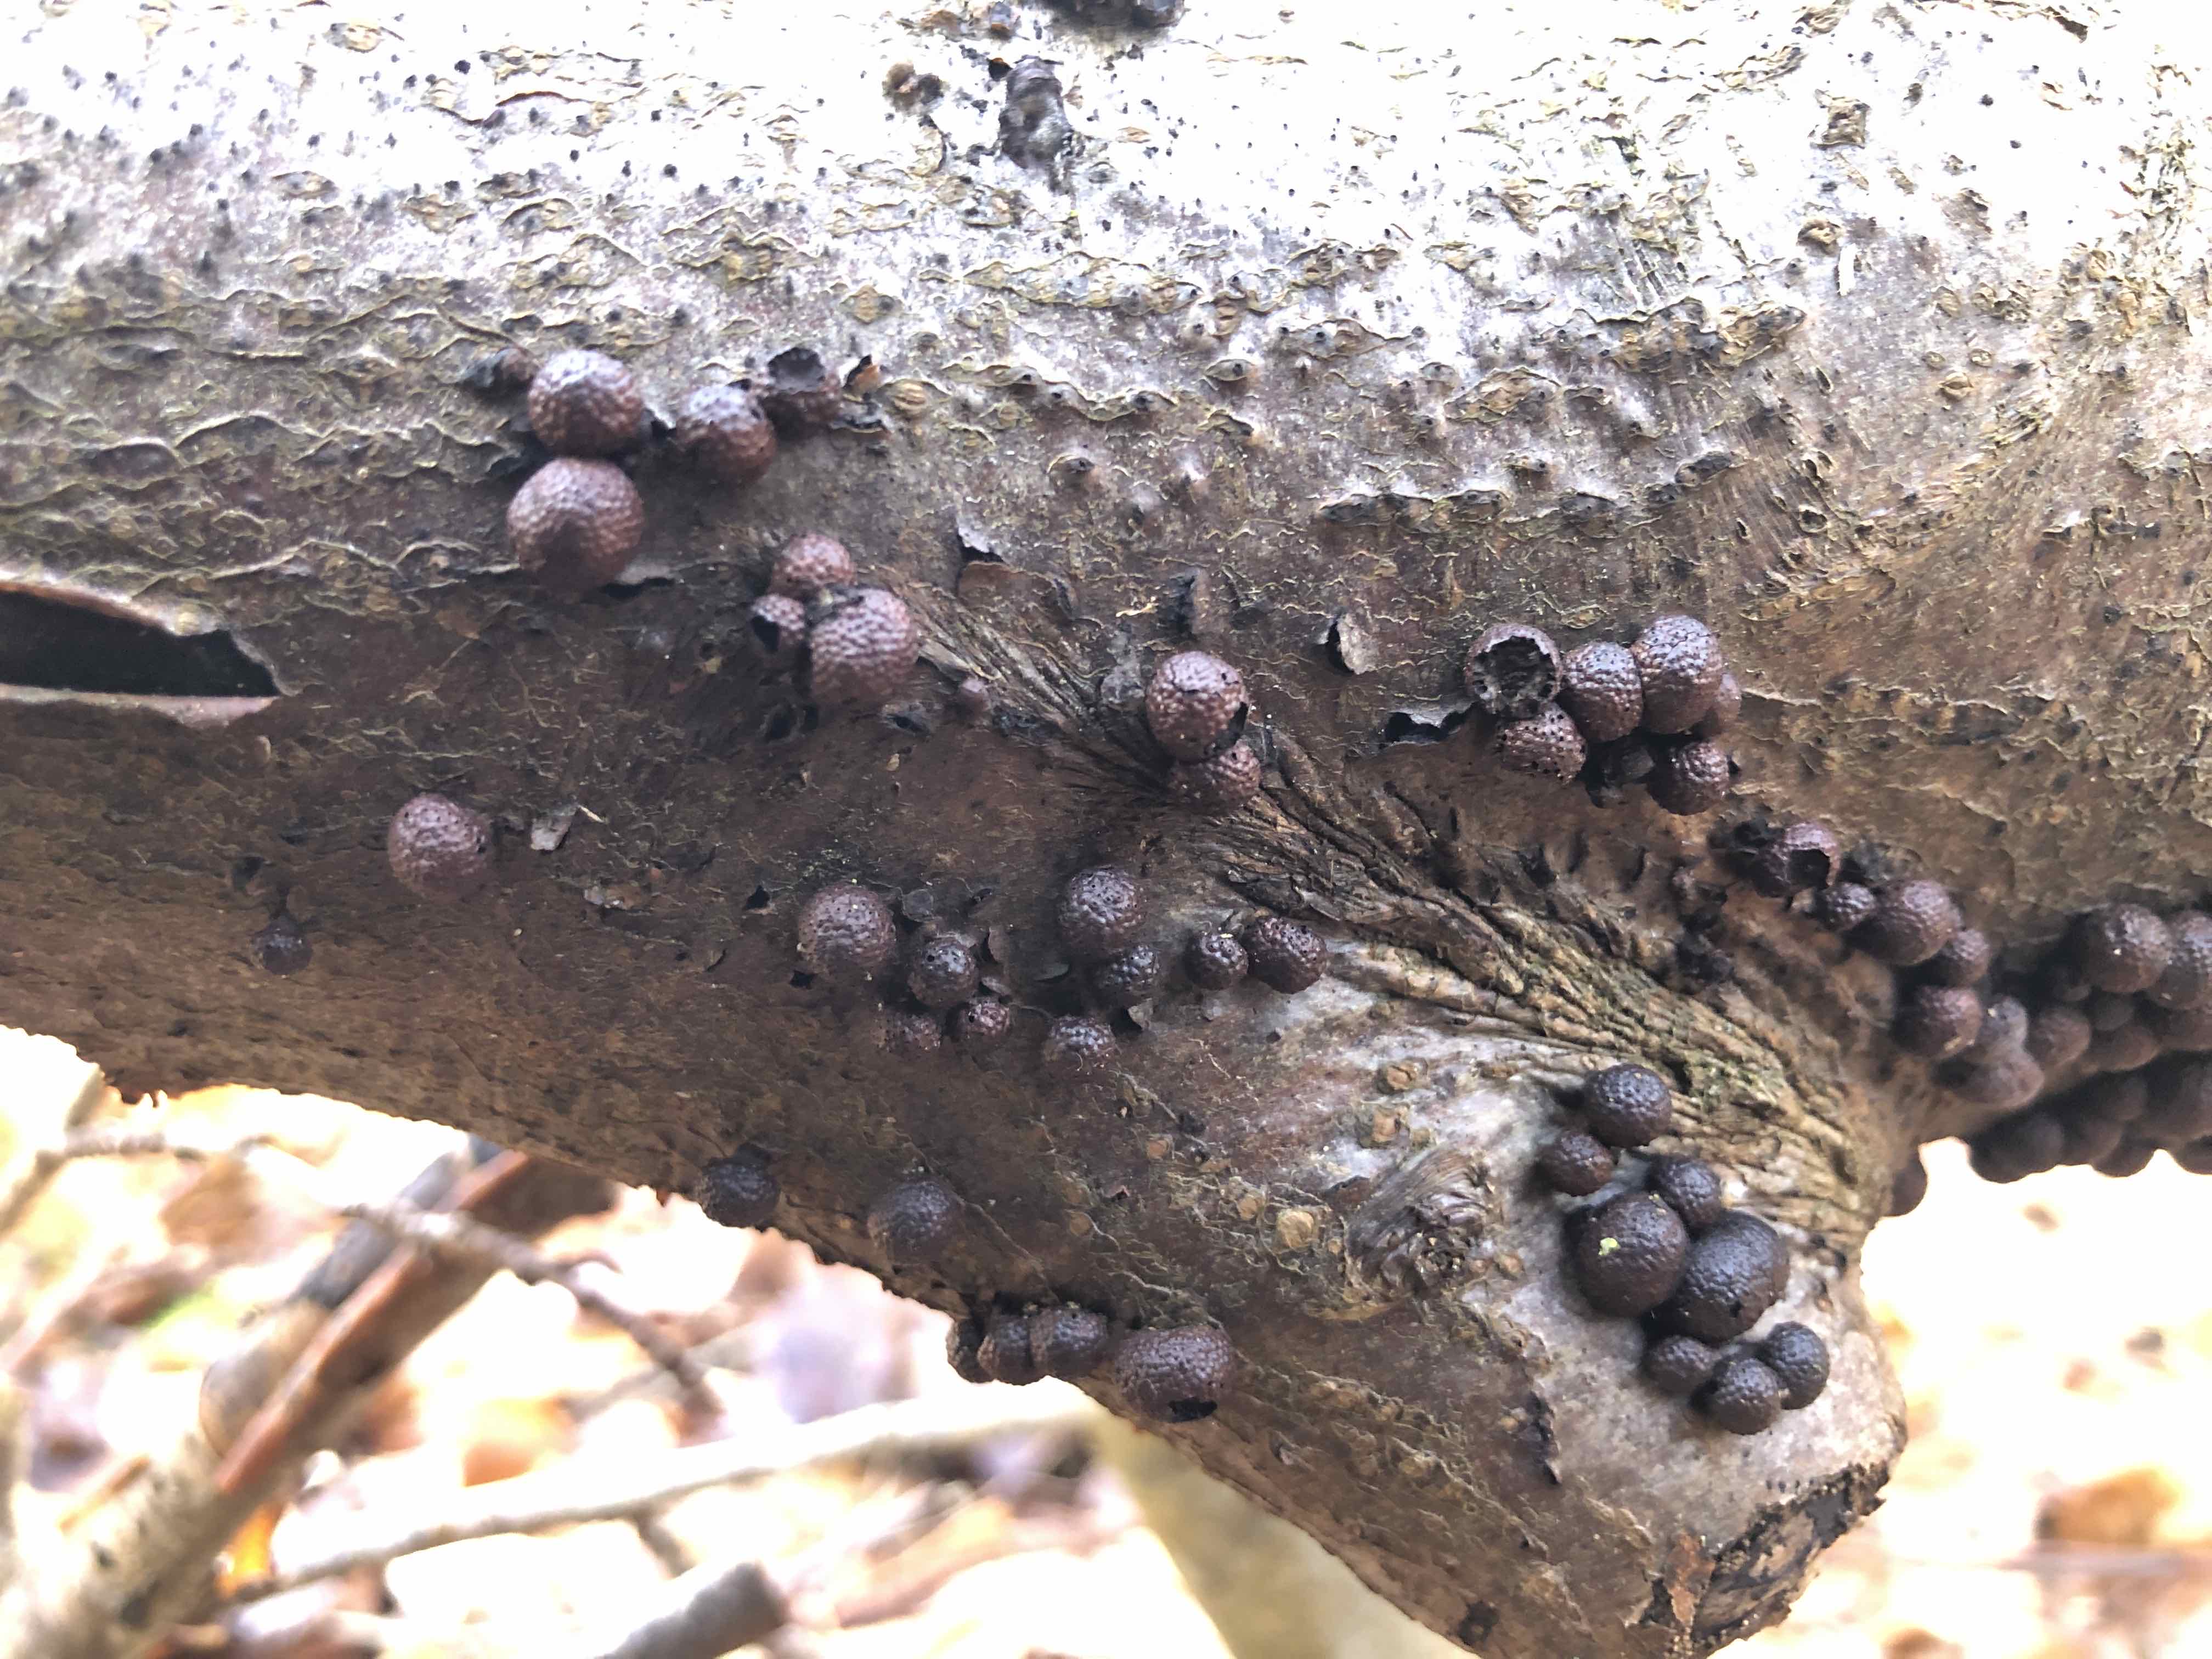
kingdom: Fungi
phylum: Ascomycota
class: Sordariomycetes
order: Xylariales
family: Hypoxylaceae
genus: Hypoxylon
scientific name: Hypoxylon fragiforme
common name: kuljordbær
